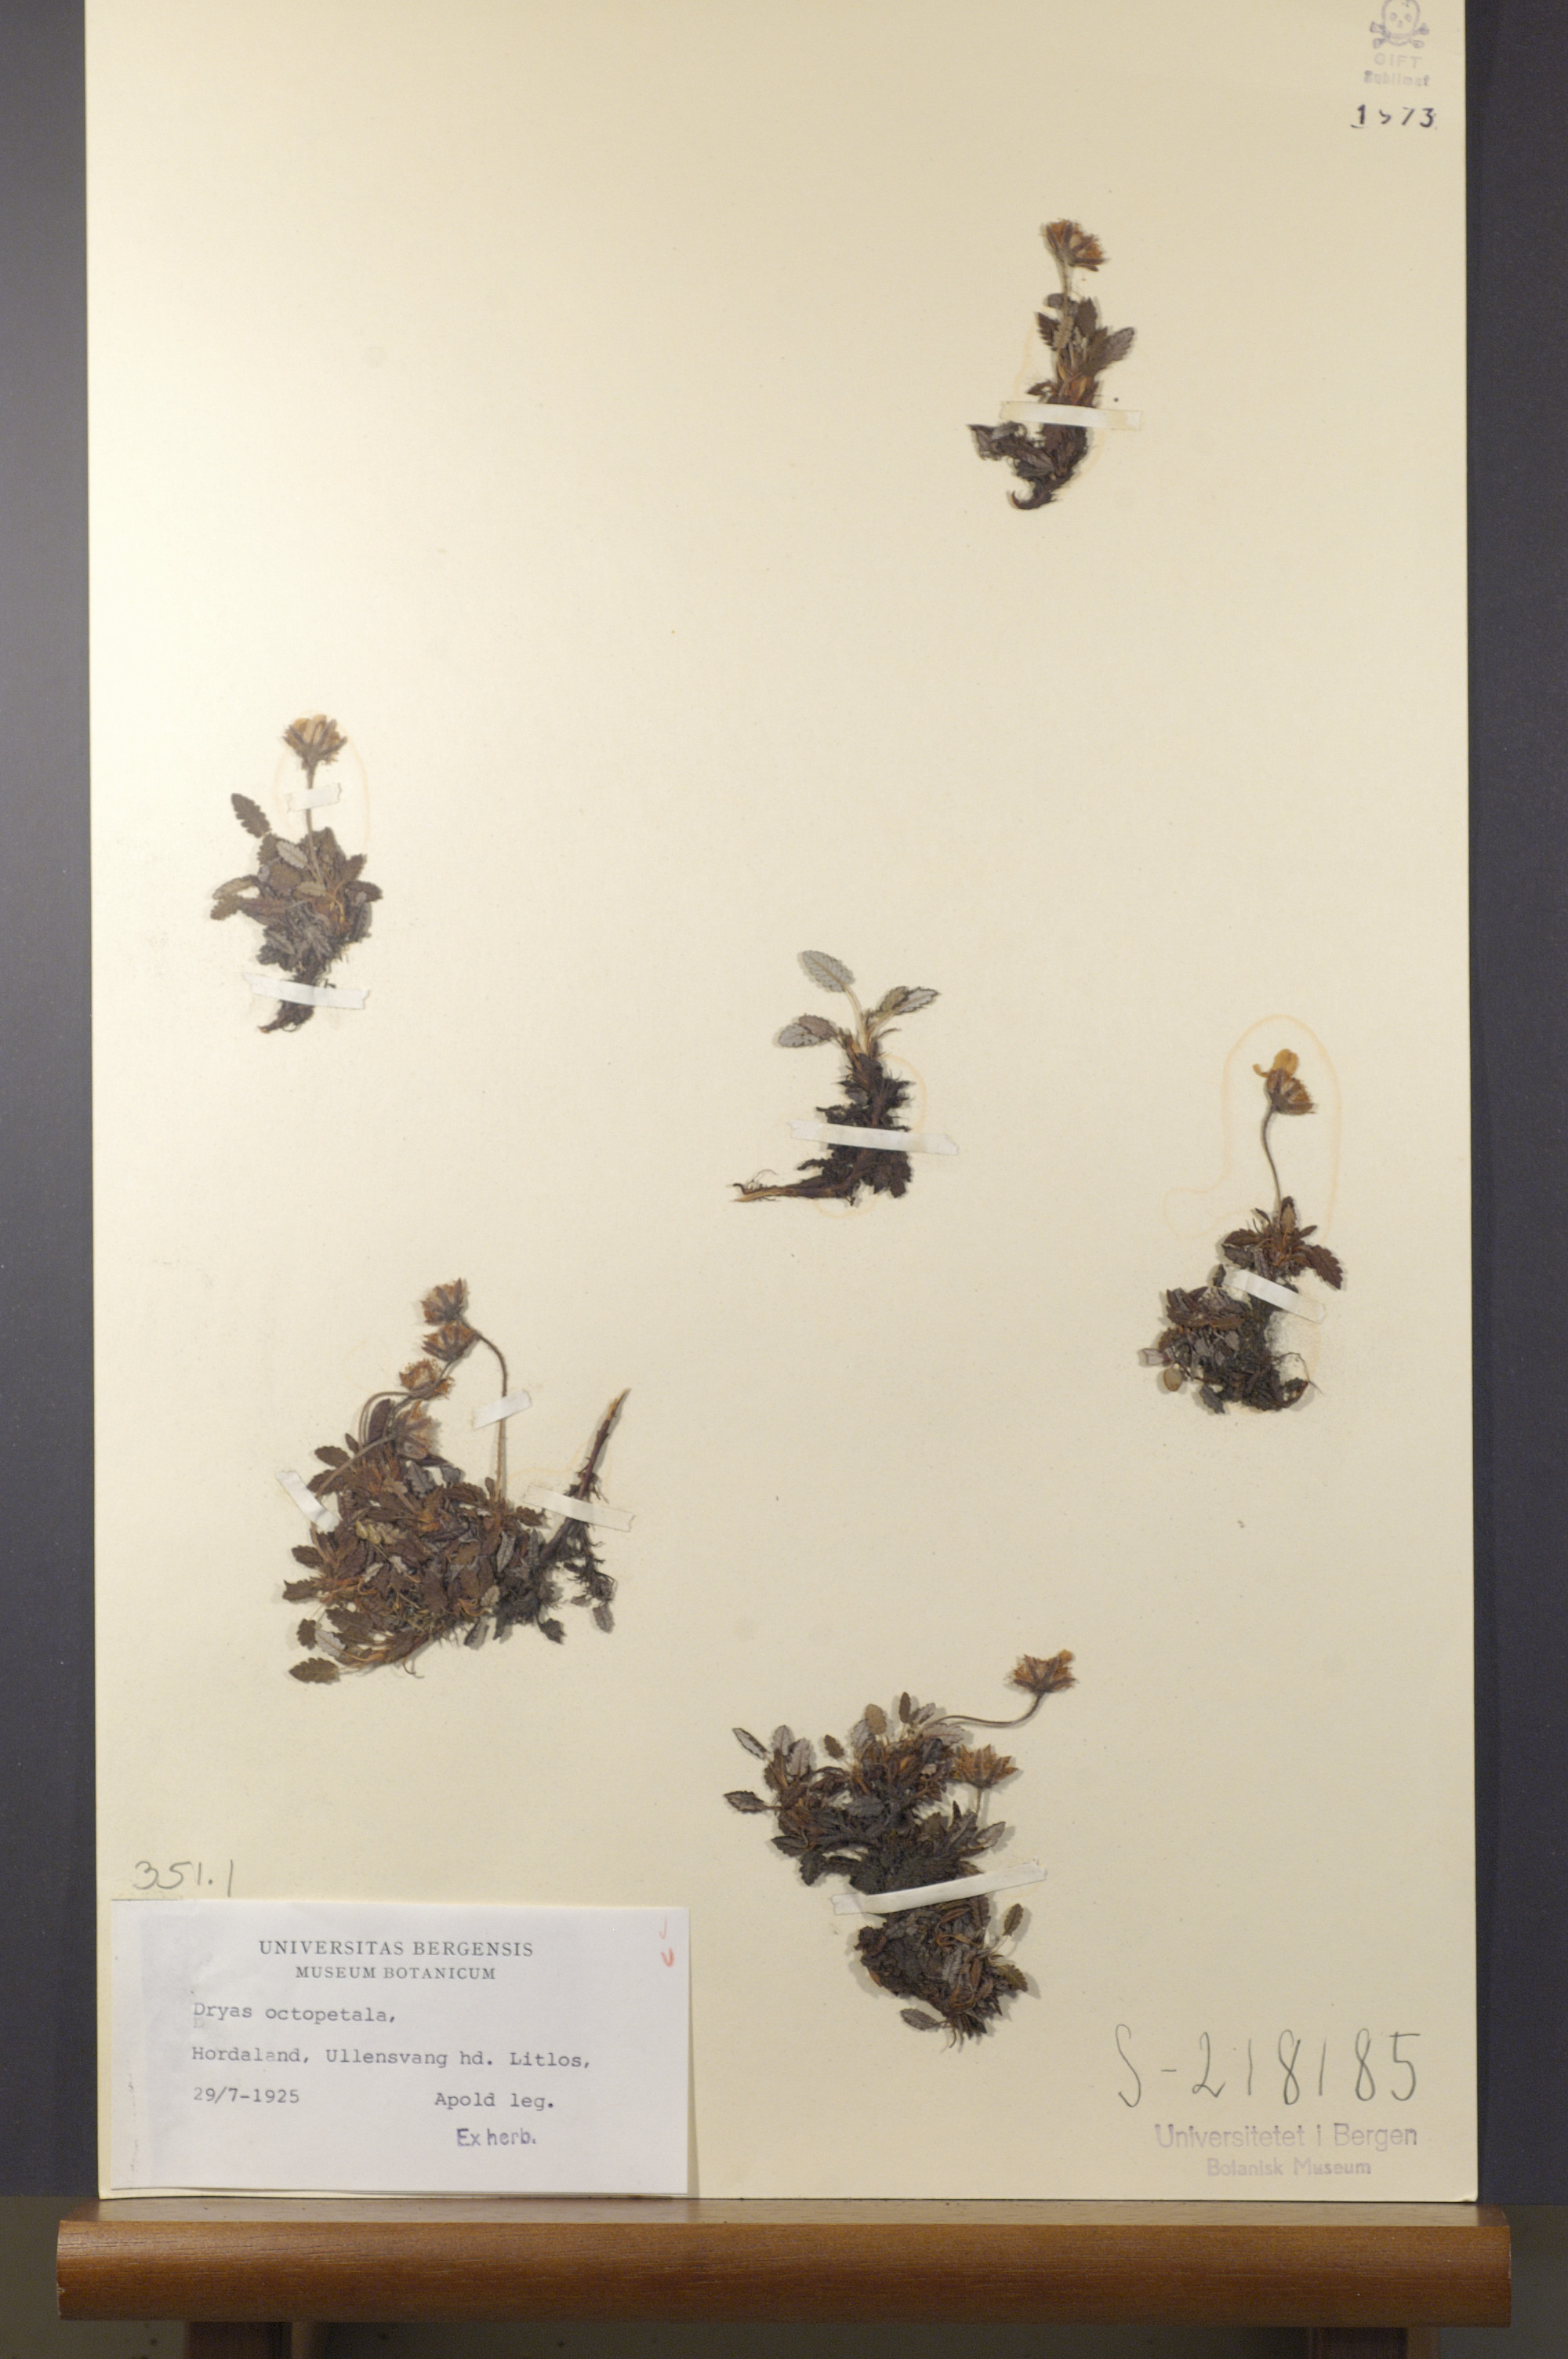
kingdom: Plantae
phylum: Tracheophyta
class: Magnoliopsida
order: Rosales
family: Rosaceae
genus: Dryas
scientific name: Dryas octopetala
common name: Eight-petal mountain-avens
